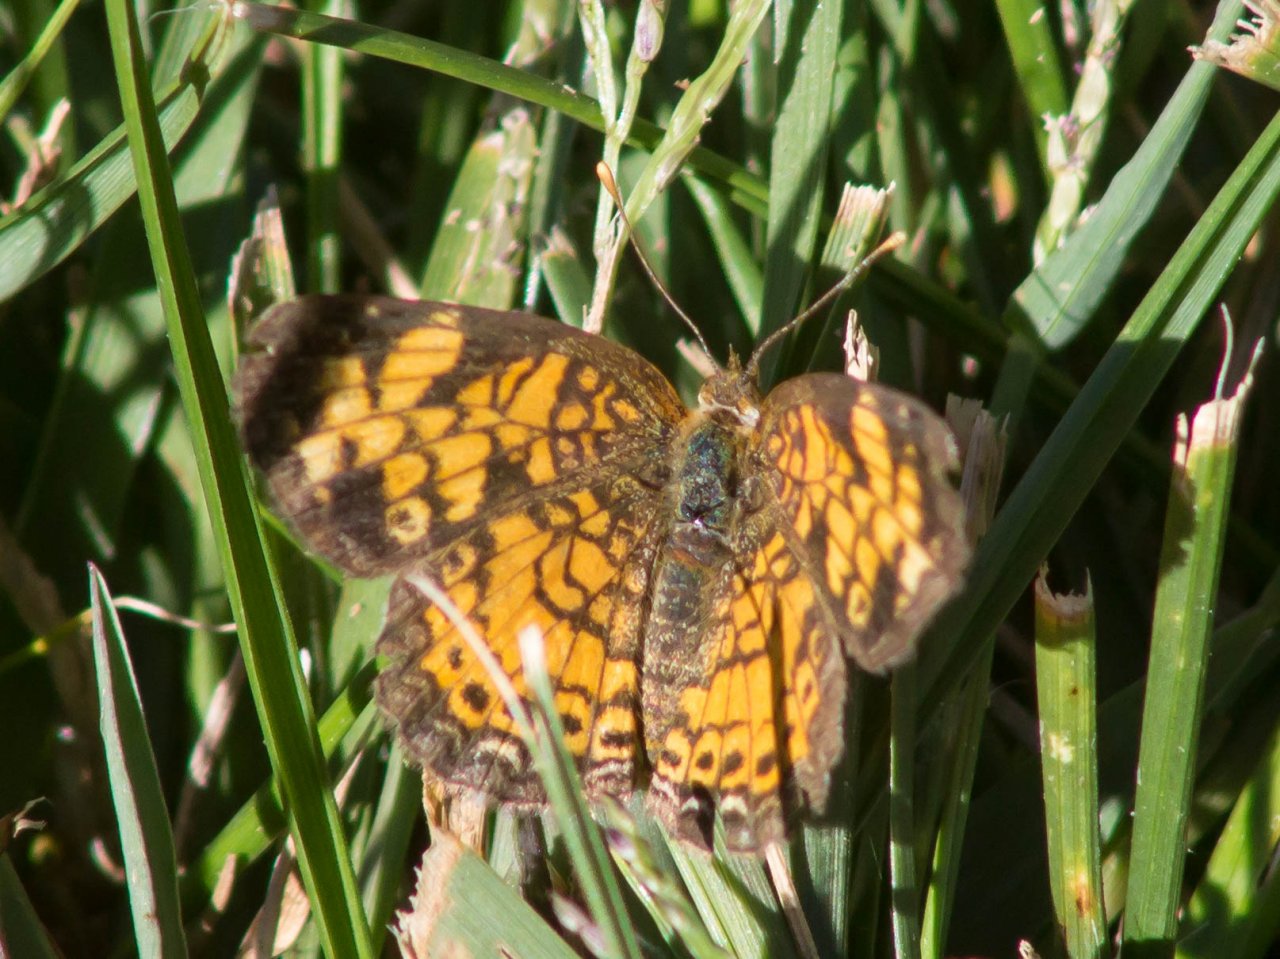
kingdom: Animalia
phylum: Arthropoda
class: Insecta
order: Lepidoptera
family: Nymphalidae
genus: Phyciodes
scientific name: Phyciodes tharos
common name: Pearl Crescent
